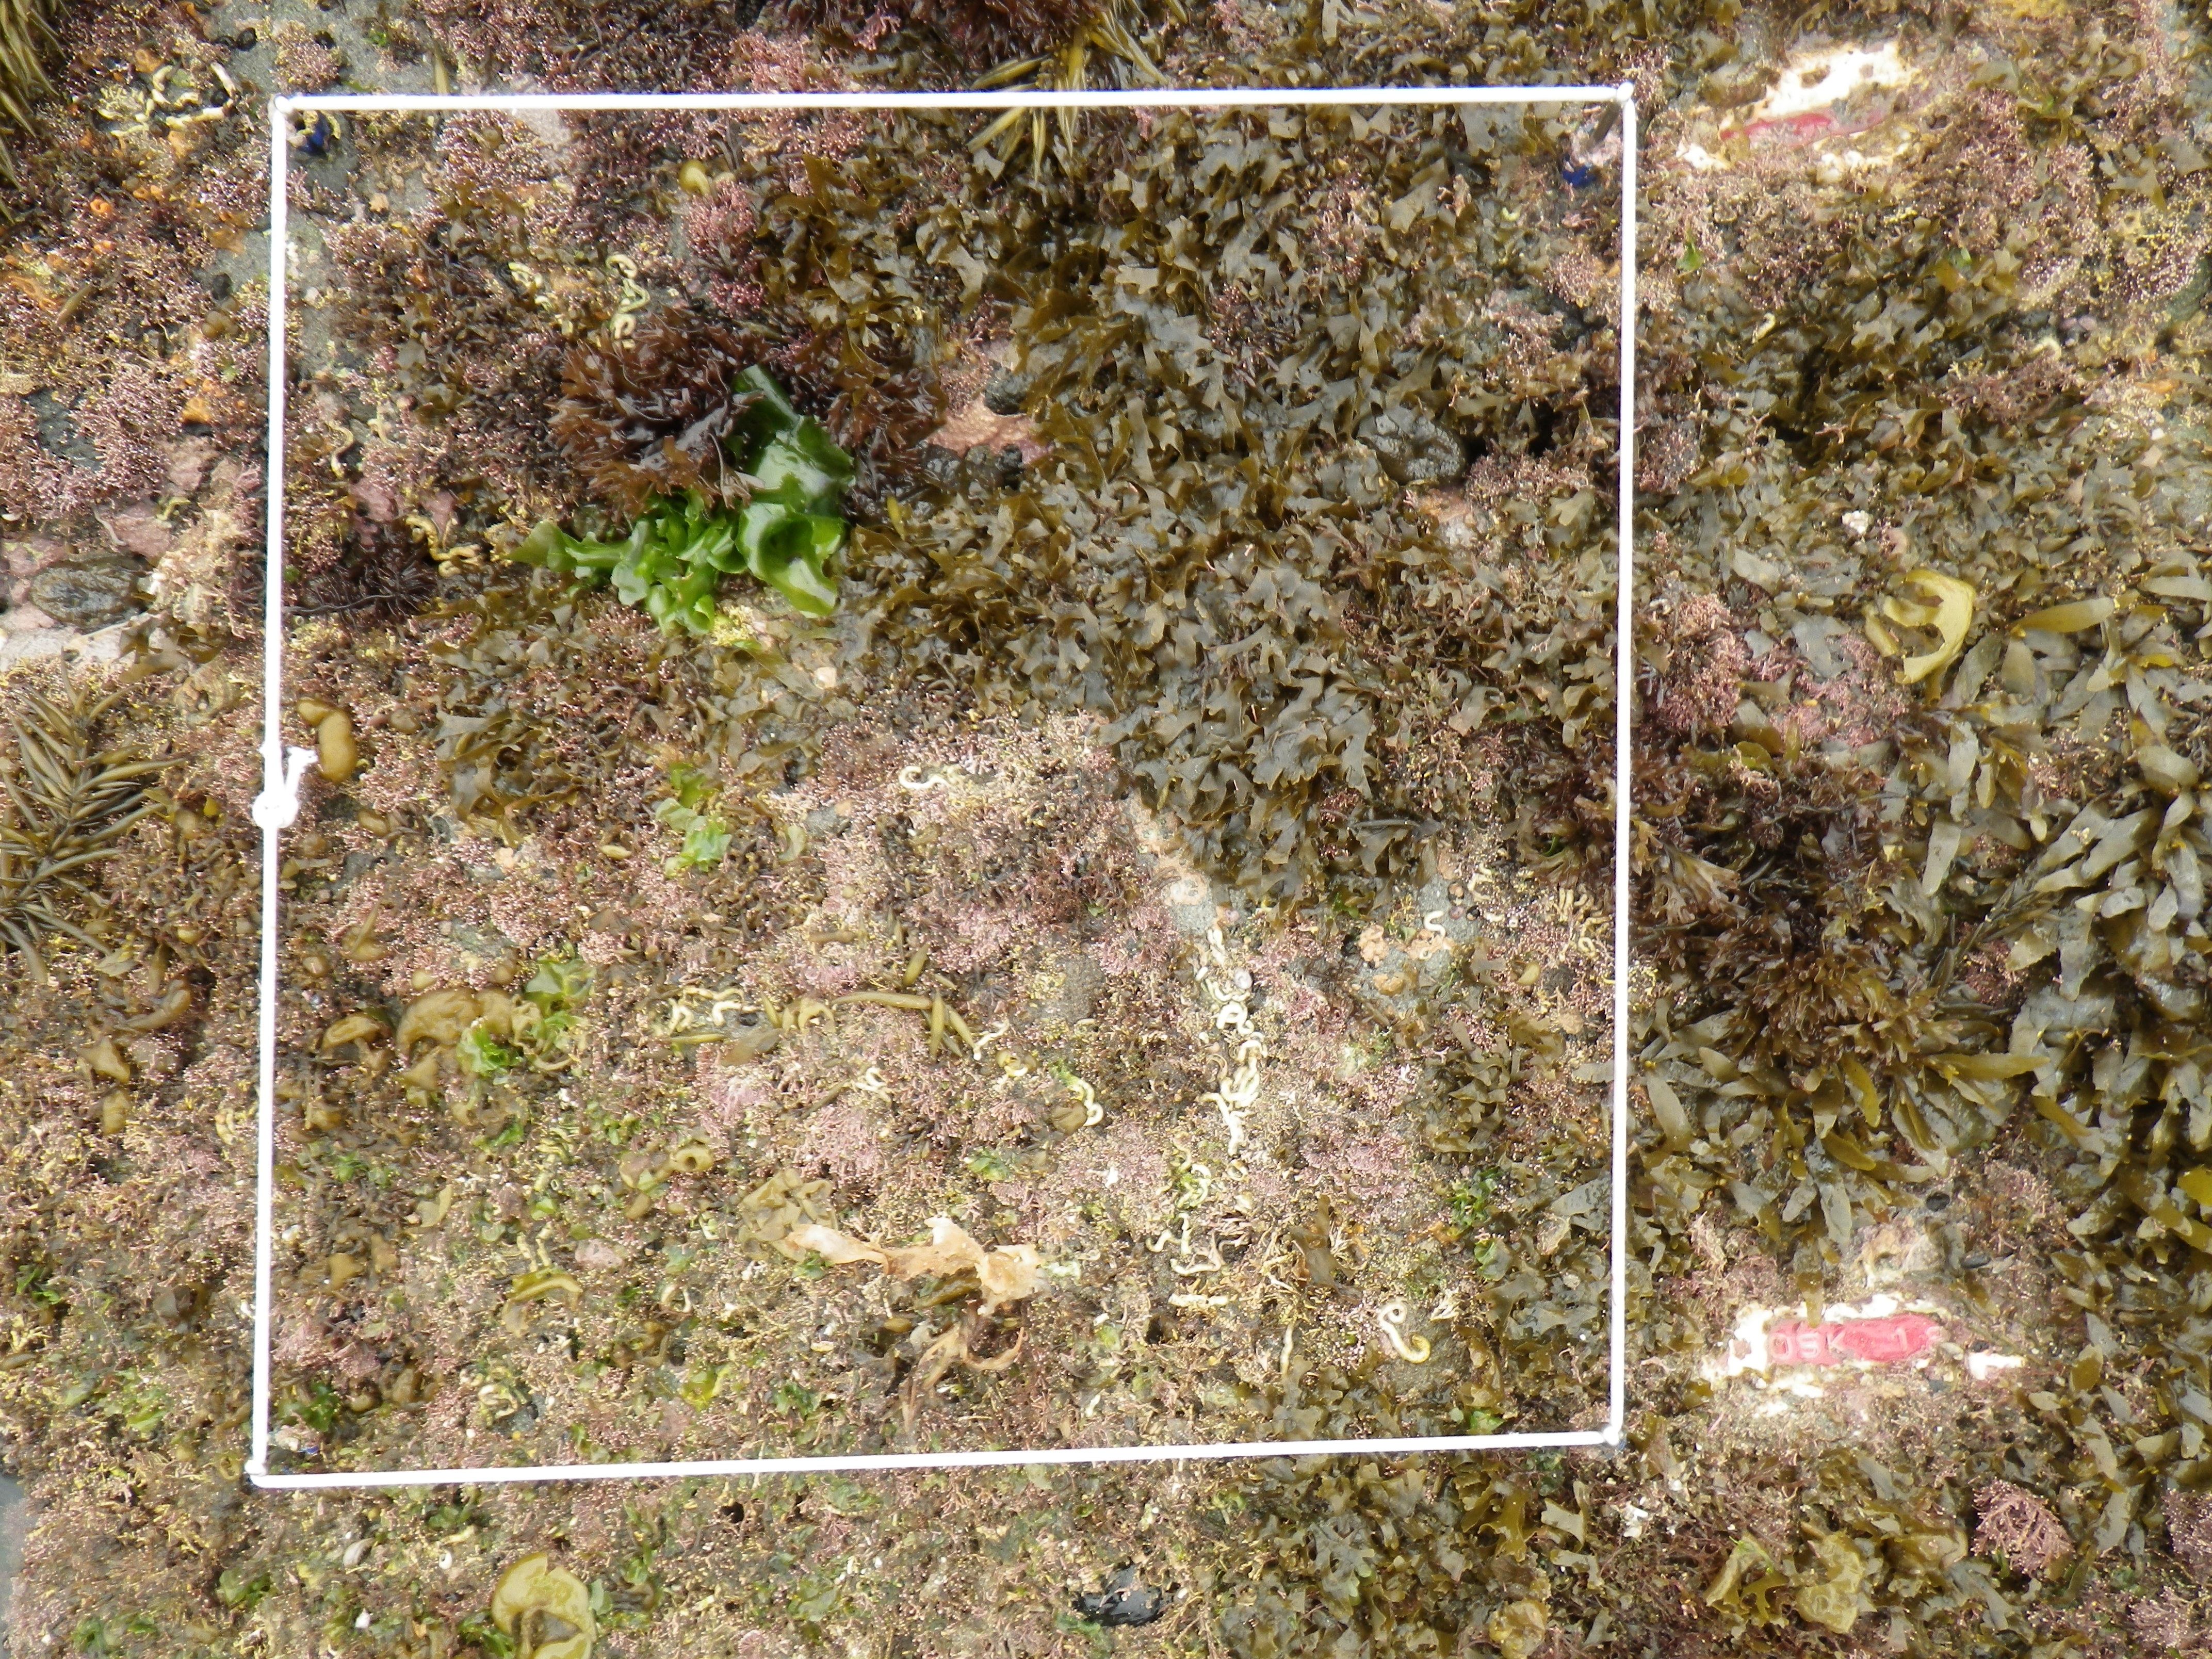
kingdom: Chromista
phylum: Ochrophyta
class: Phaeophyceae
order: Fucales
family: Sargassaceae
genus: Sargassum
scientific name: Sargassum fusiforme
